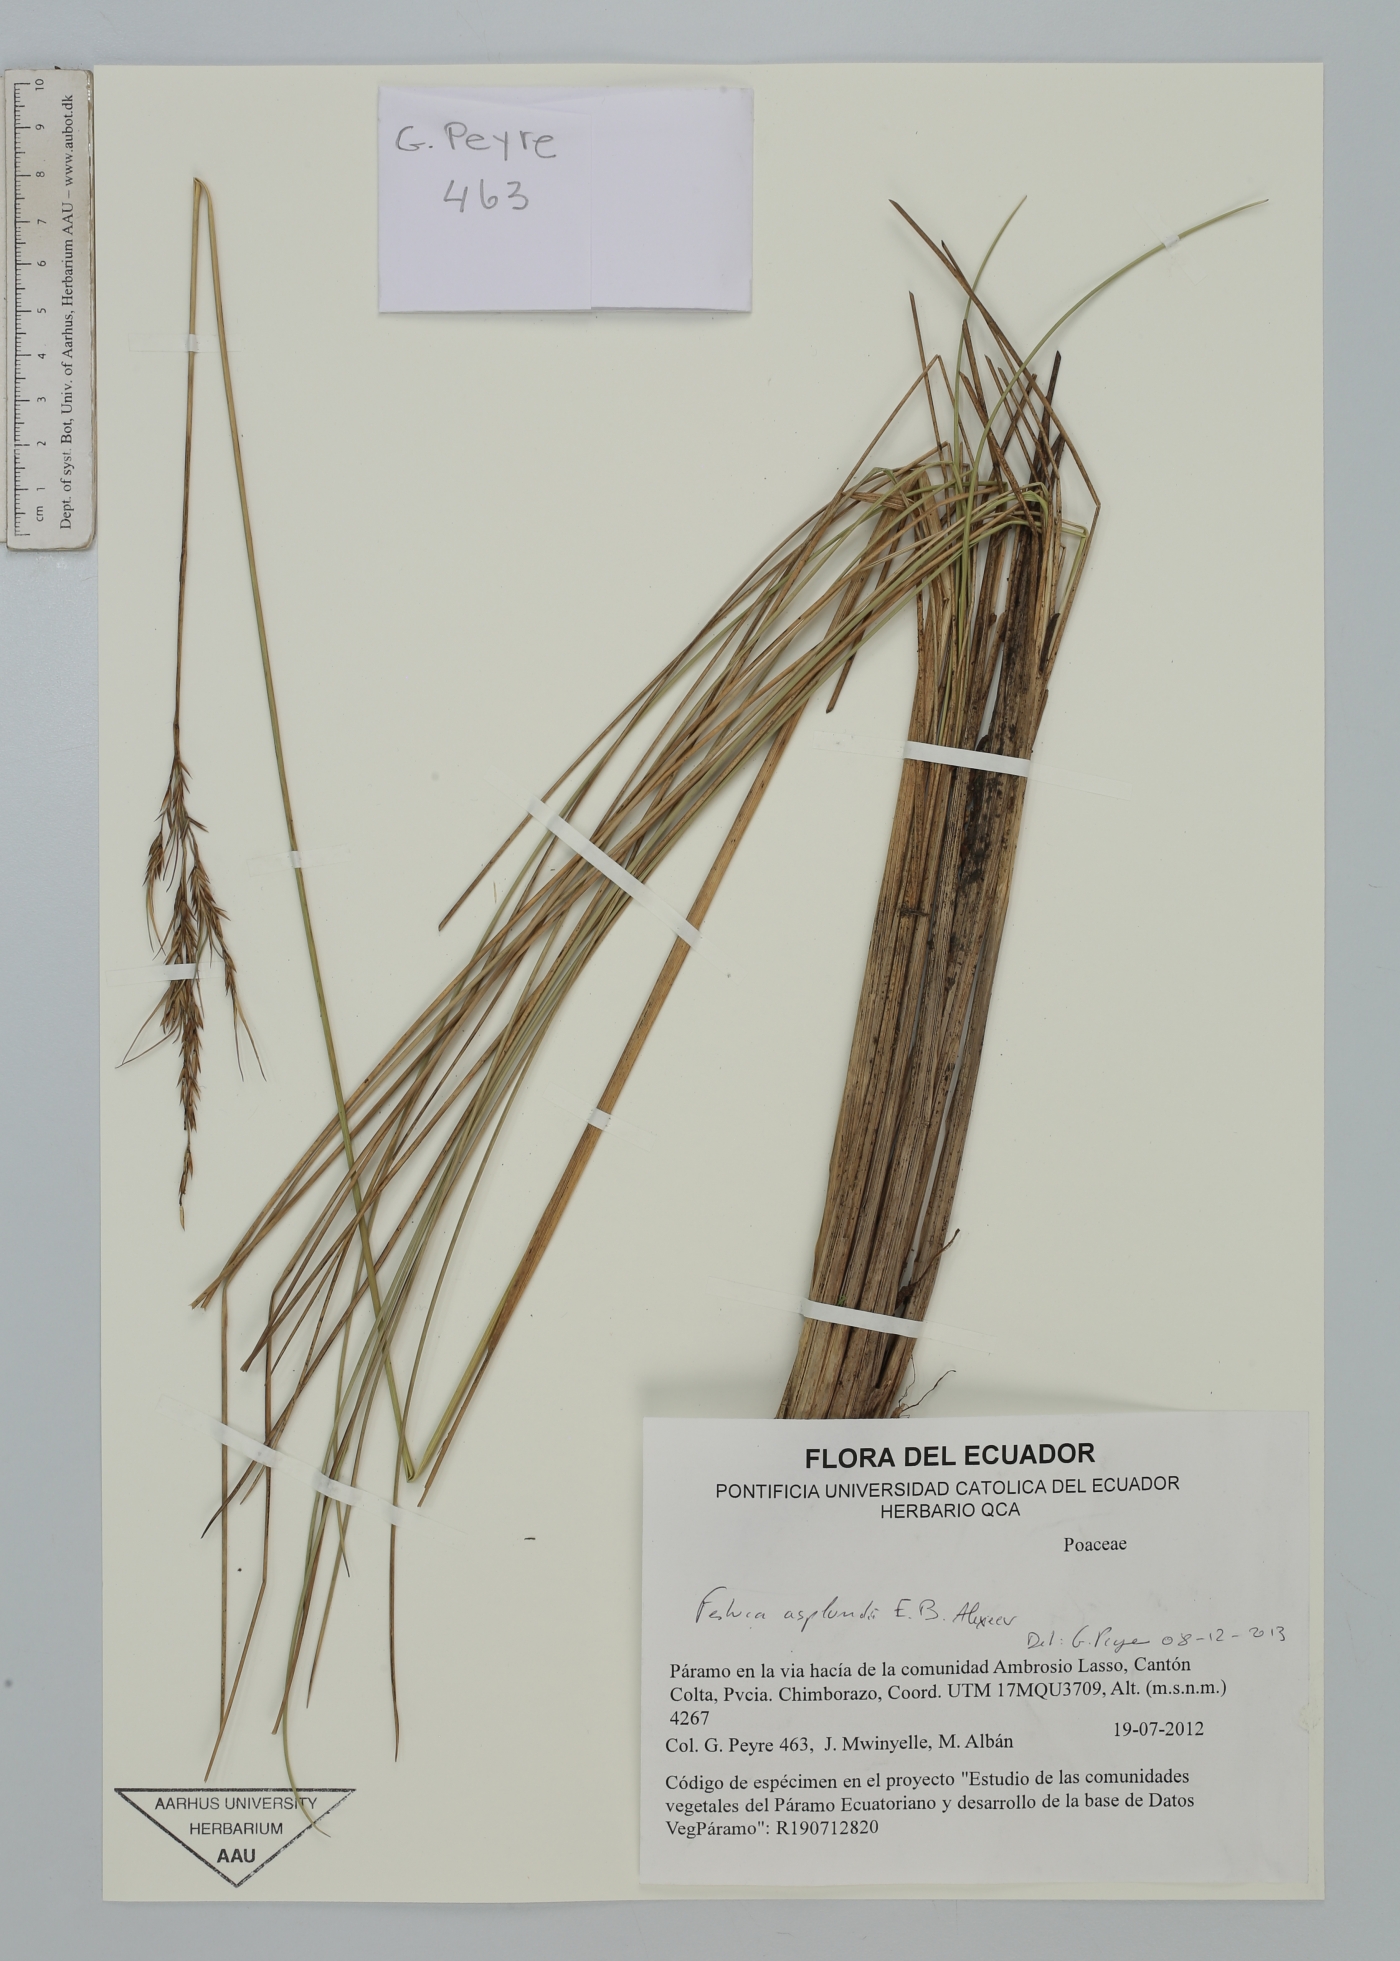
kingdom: Plantae
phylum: Tracheophyta
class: Liliopsida
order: Poales
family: Poaceae
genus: Festuca
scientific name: Festuca asplundii
